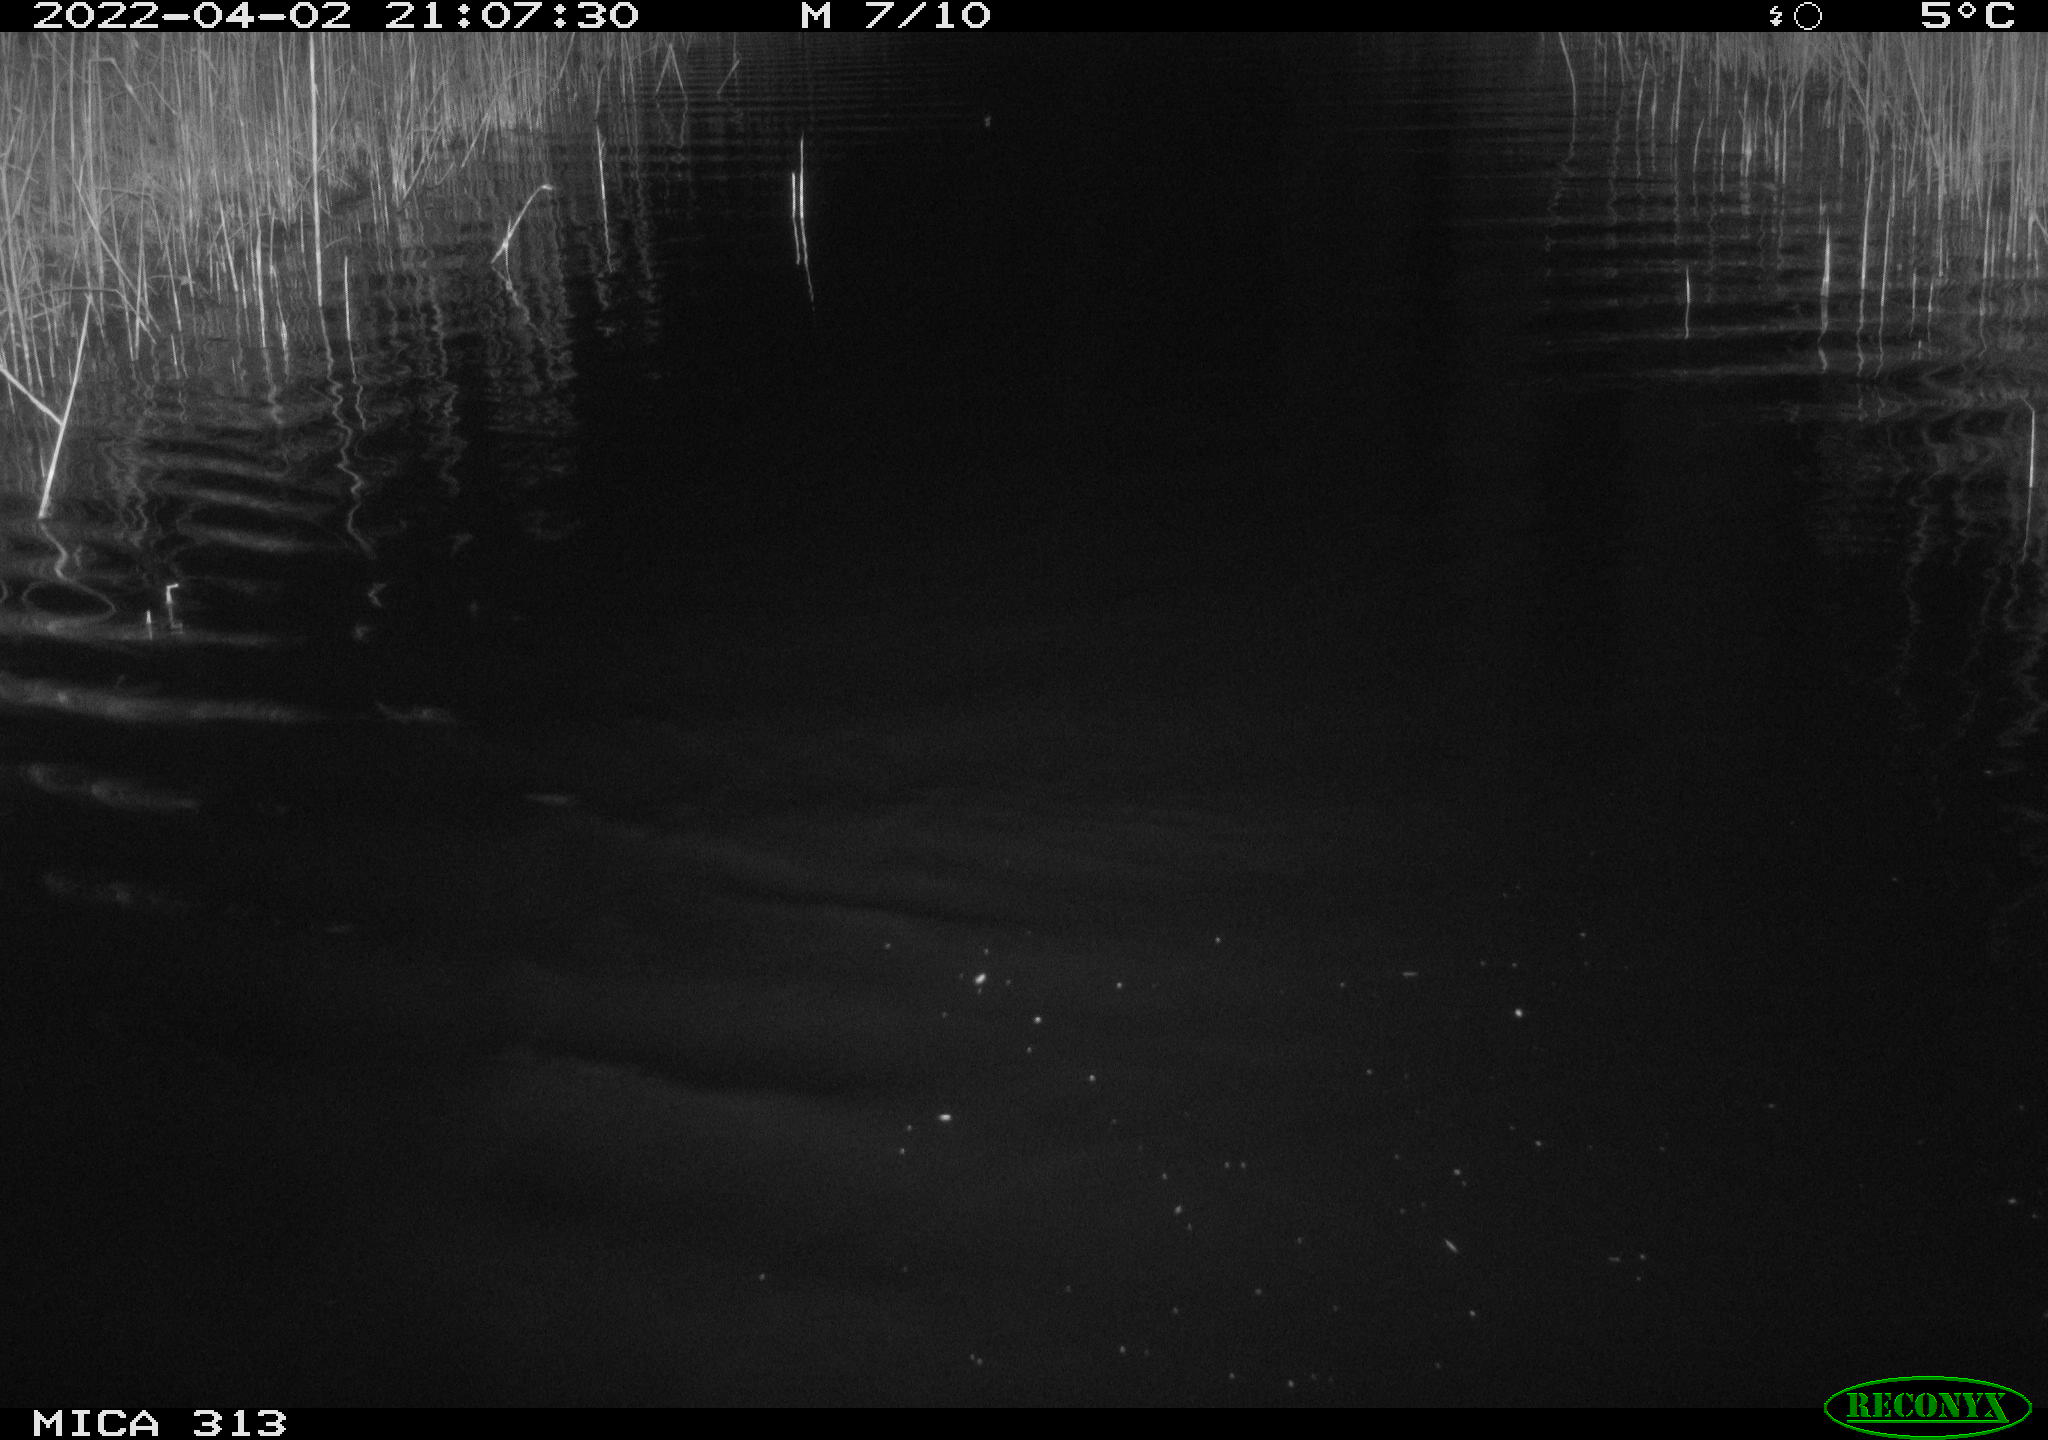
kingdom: Animalia
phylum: Chordata
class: Mammalia
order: Rodentia
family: Cricetidae
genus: Ondatra
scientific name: Ondatra zibethicus
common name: Muskrat
